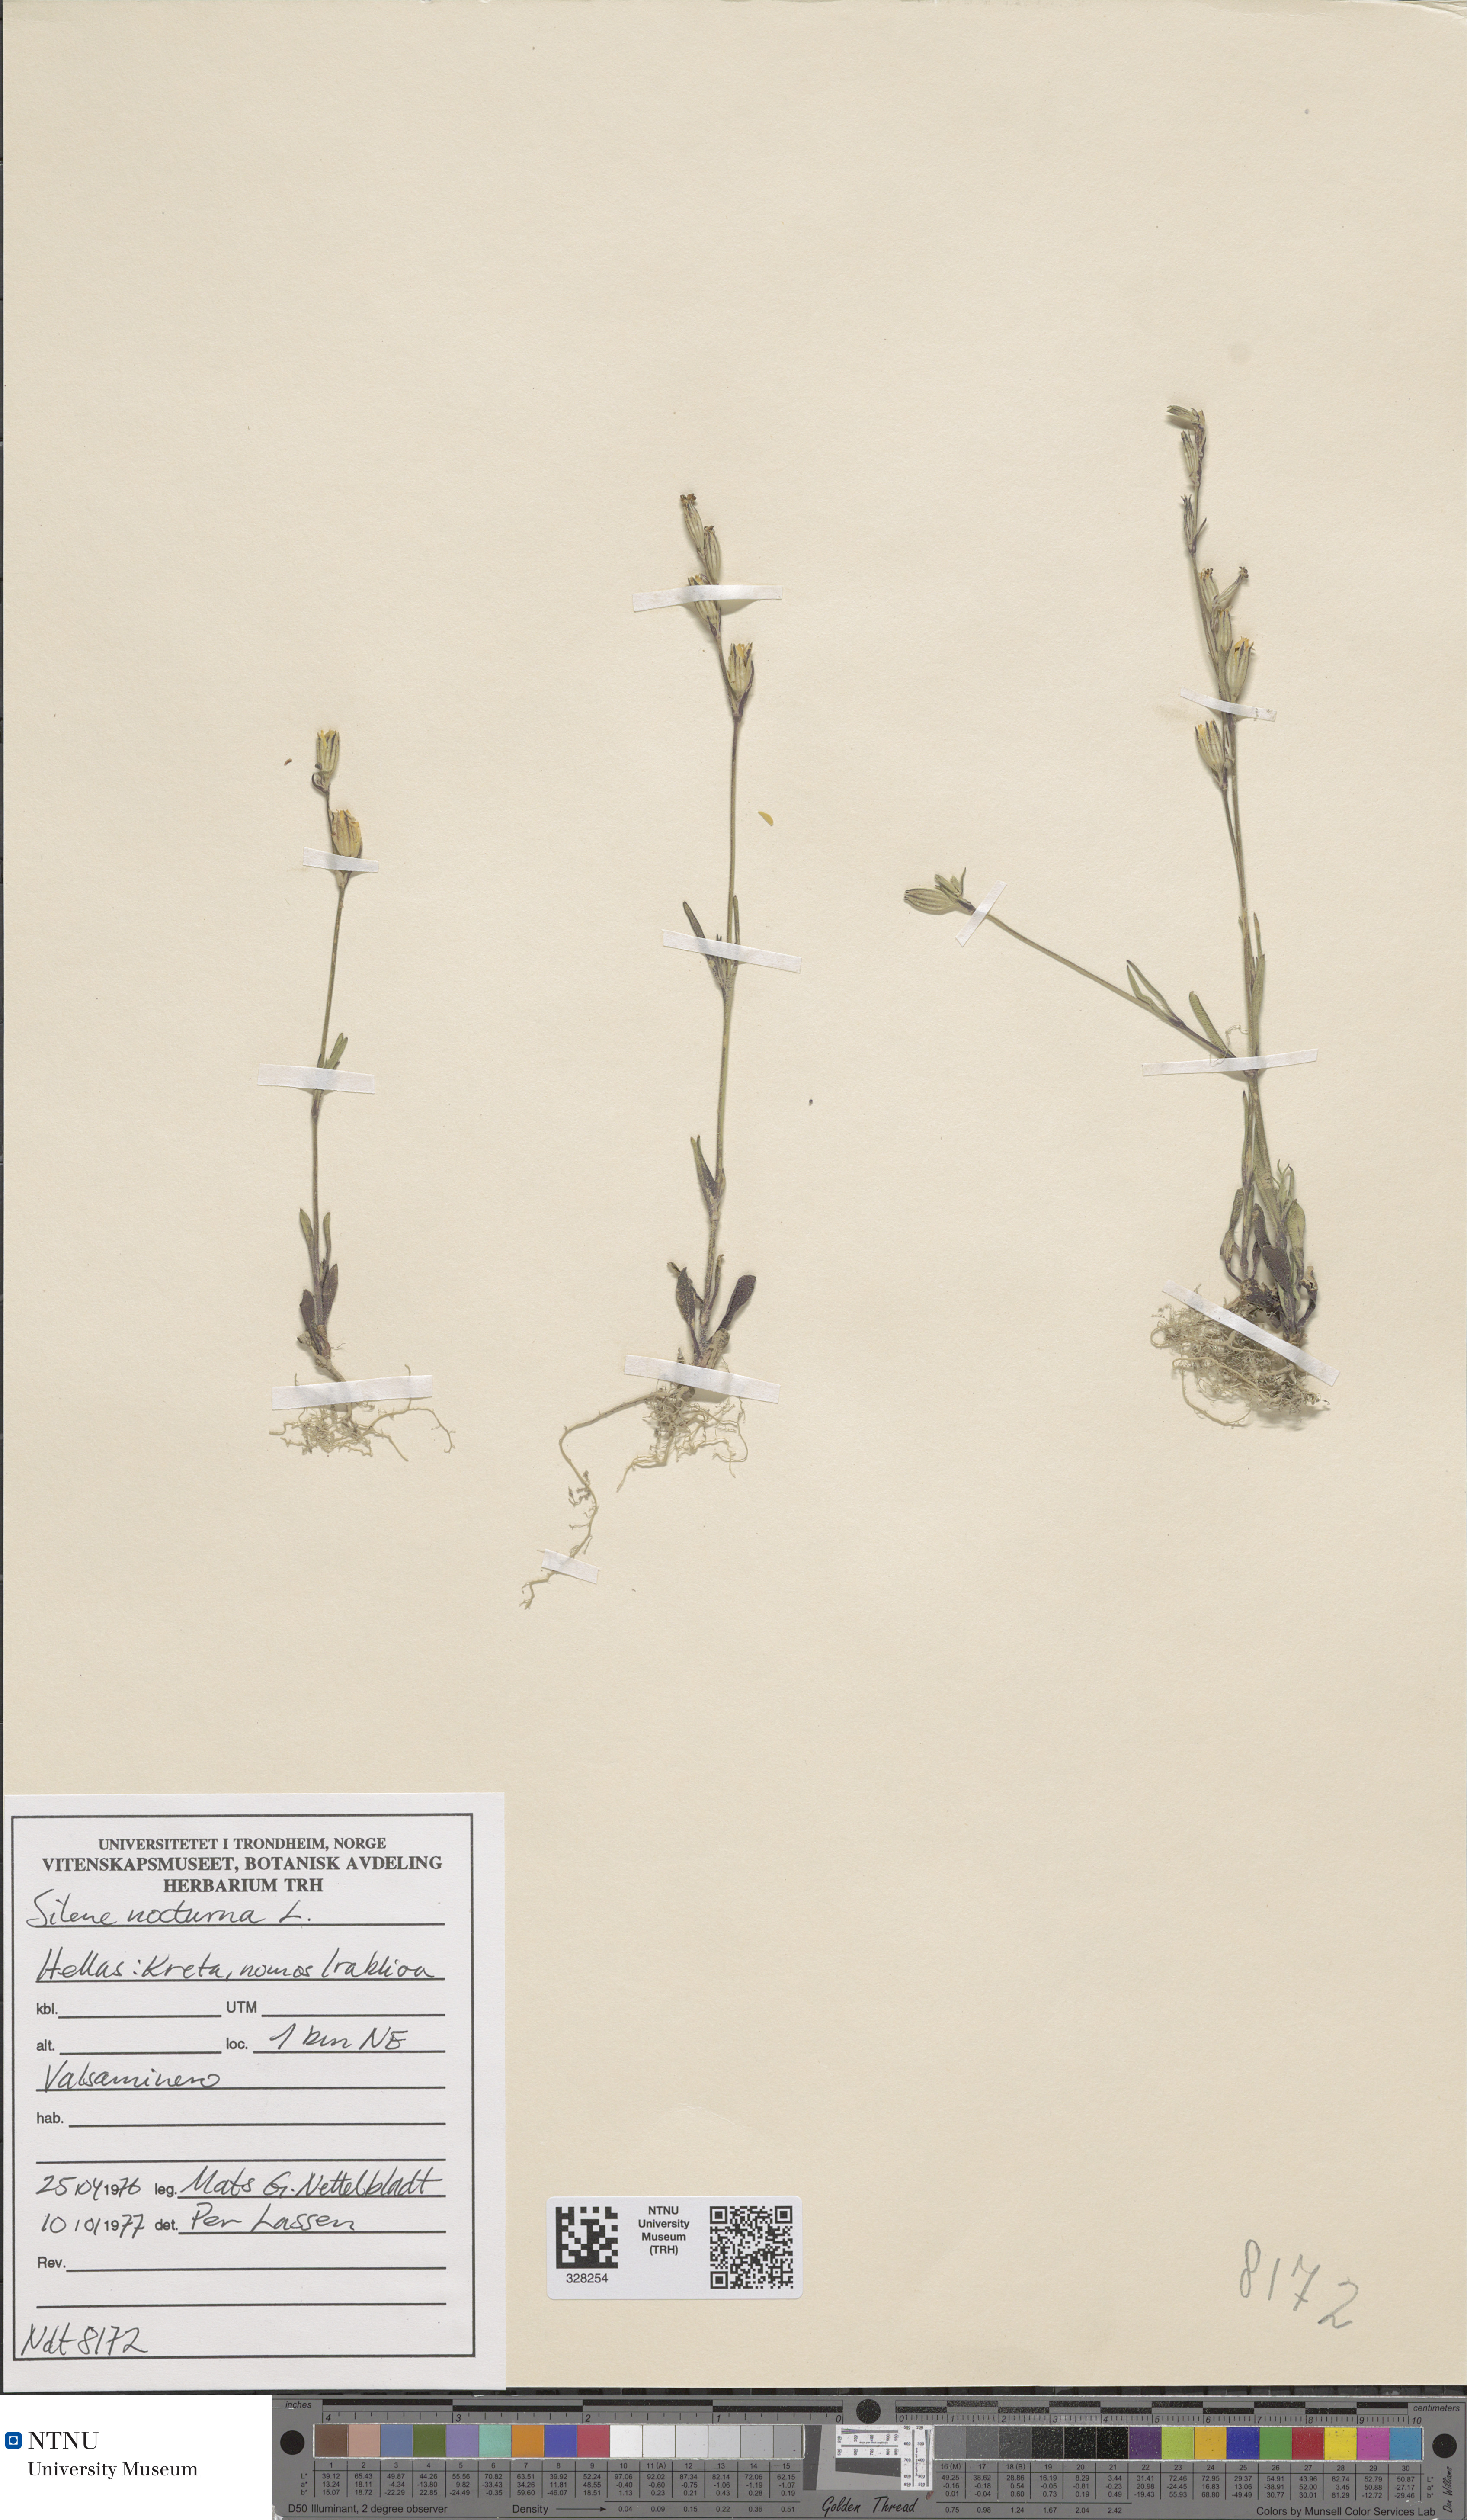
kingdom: Plantae
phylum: Tracheophyta
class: Magnoliopsida
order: Caryophyllales
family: Caryophyllaceae
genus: Silene
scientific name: Silene nocturna
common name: Mediterranean catchfly
